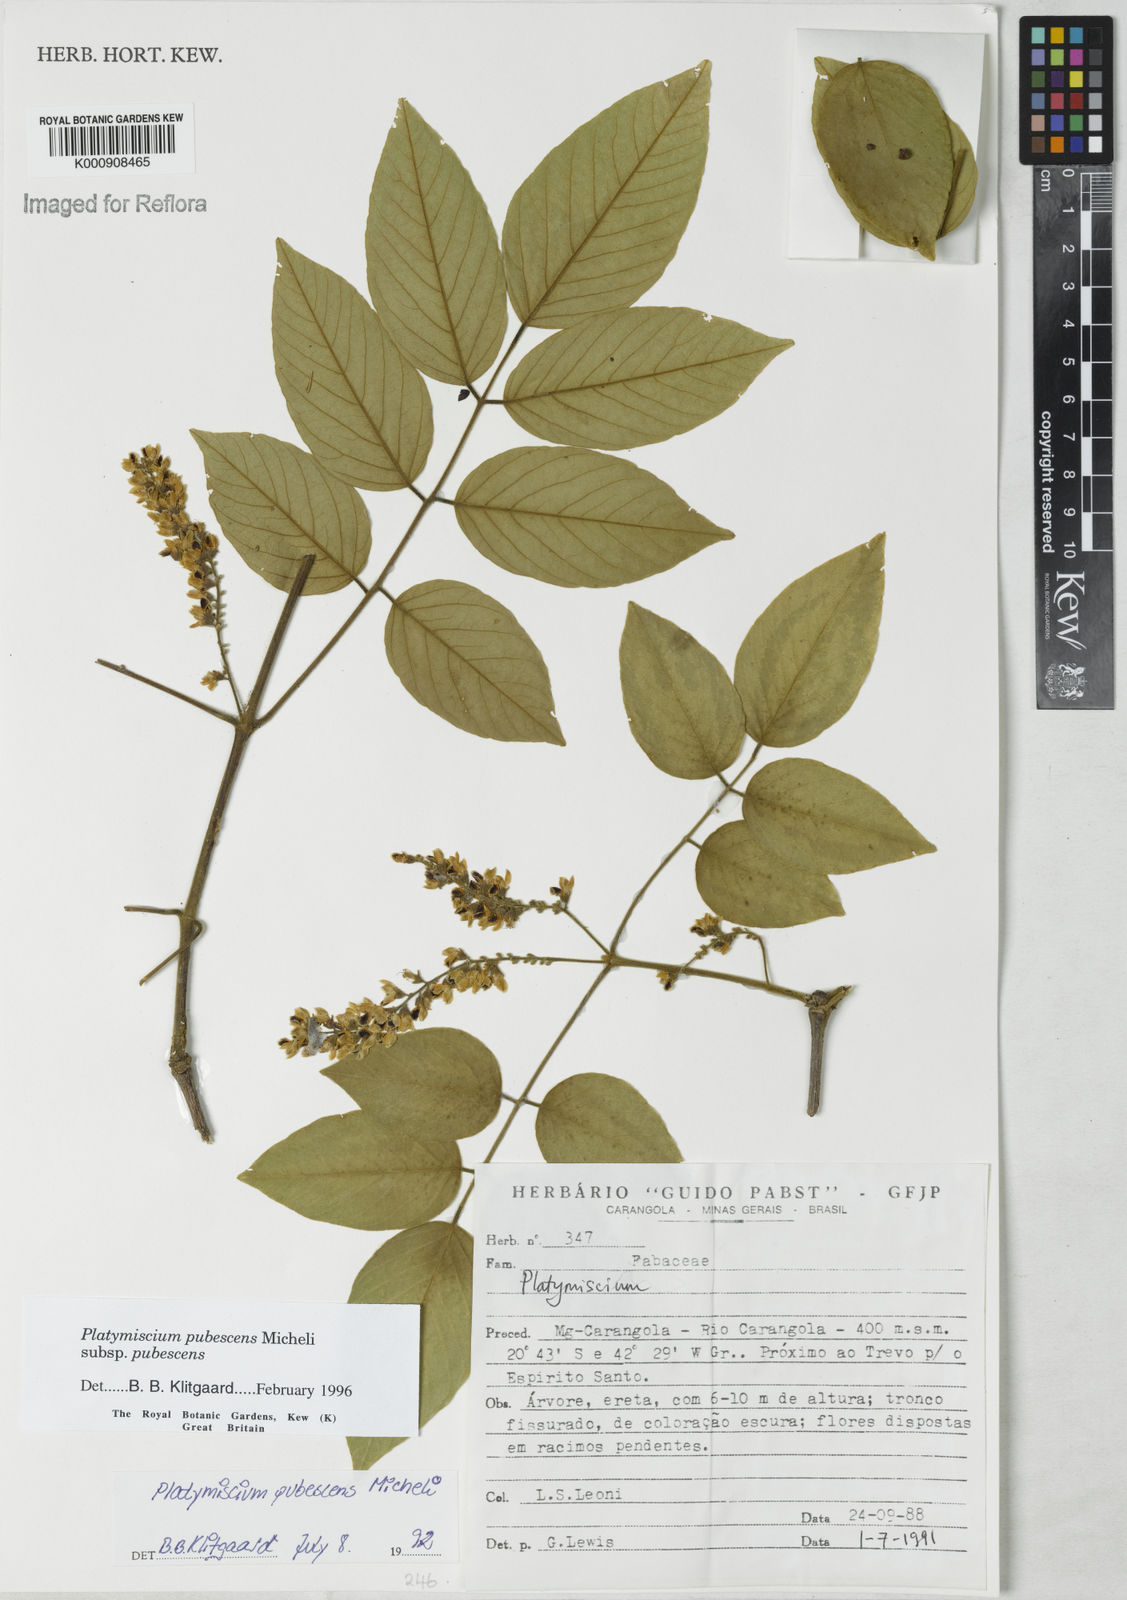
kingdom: Plantae
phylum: Tracheophyta
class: Magnoliopsida
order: Fabales
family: Fabaceae
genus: Platymiscium
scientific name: Platymiscium pubescens
